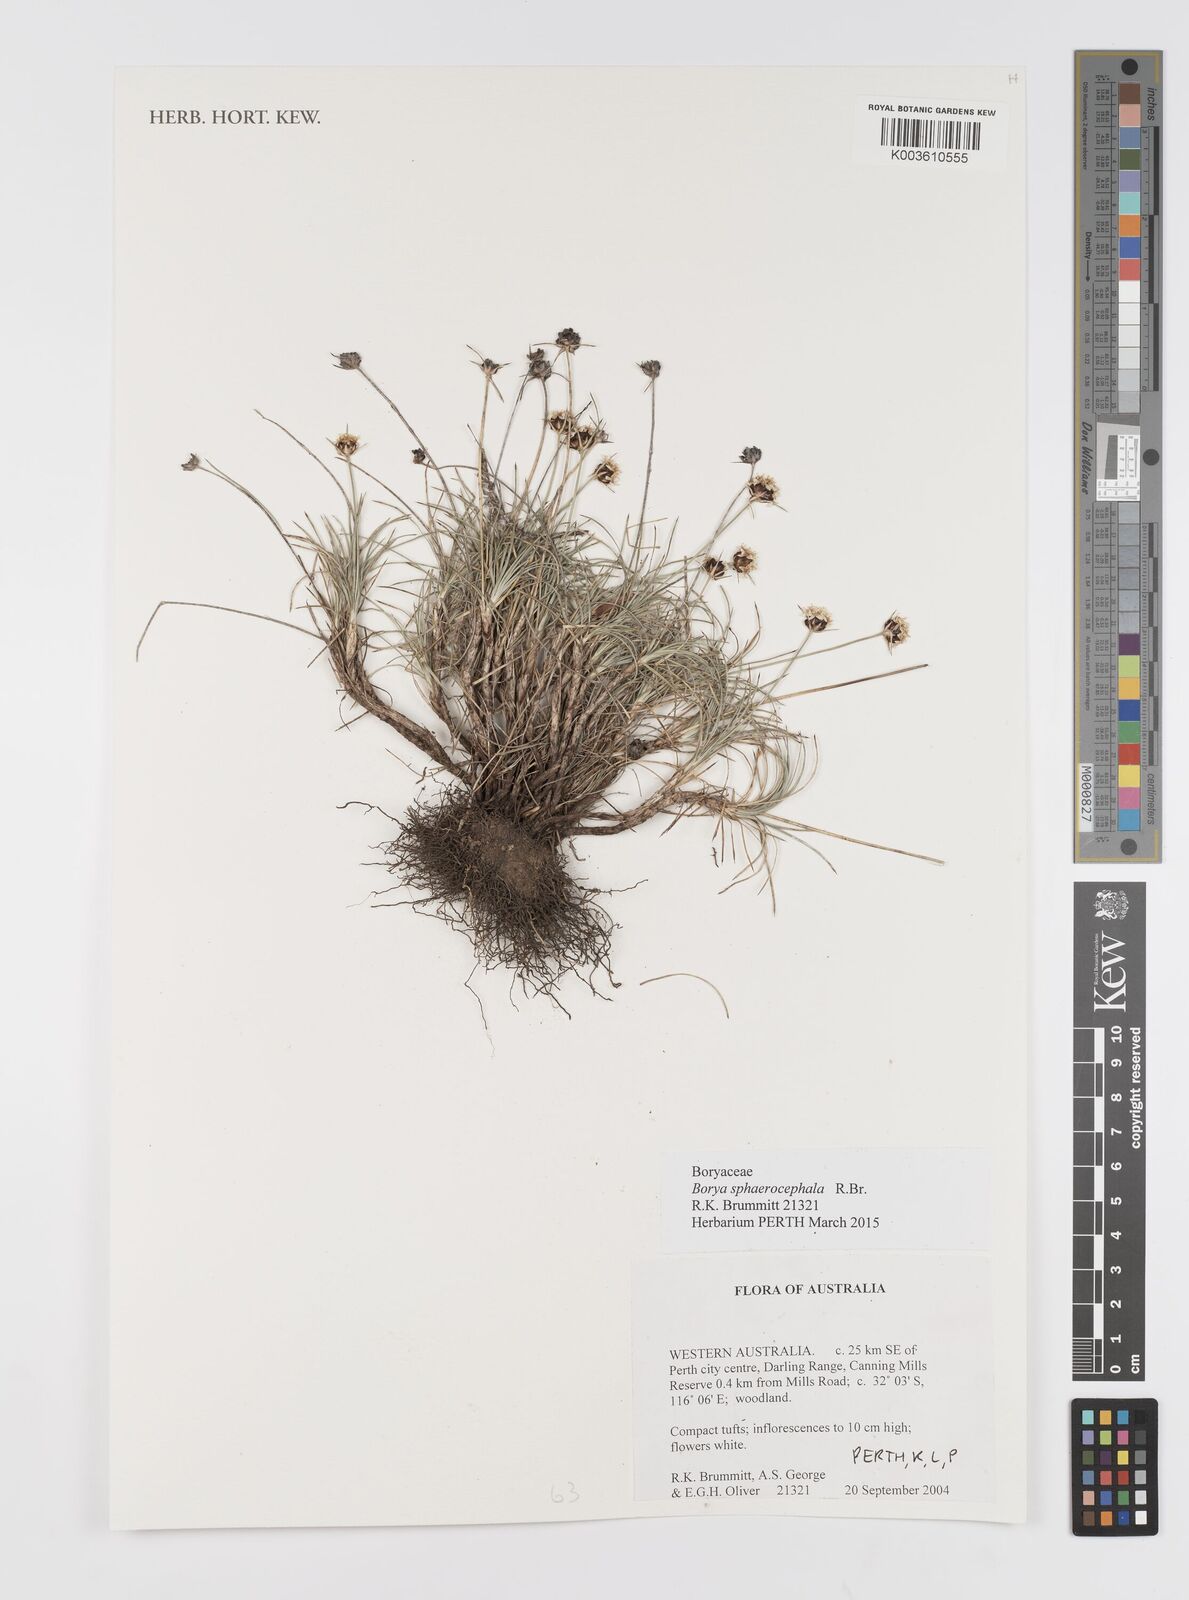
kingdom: Plantae
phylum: Tracheophyta
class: Liliopsida
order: Asparagales
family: Boryaceae
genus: Borya
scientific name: Borya sphaerocephala
